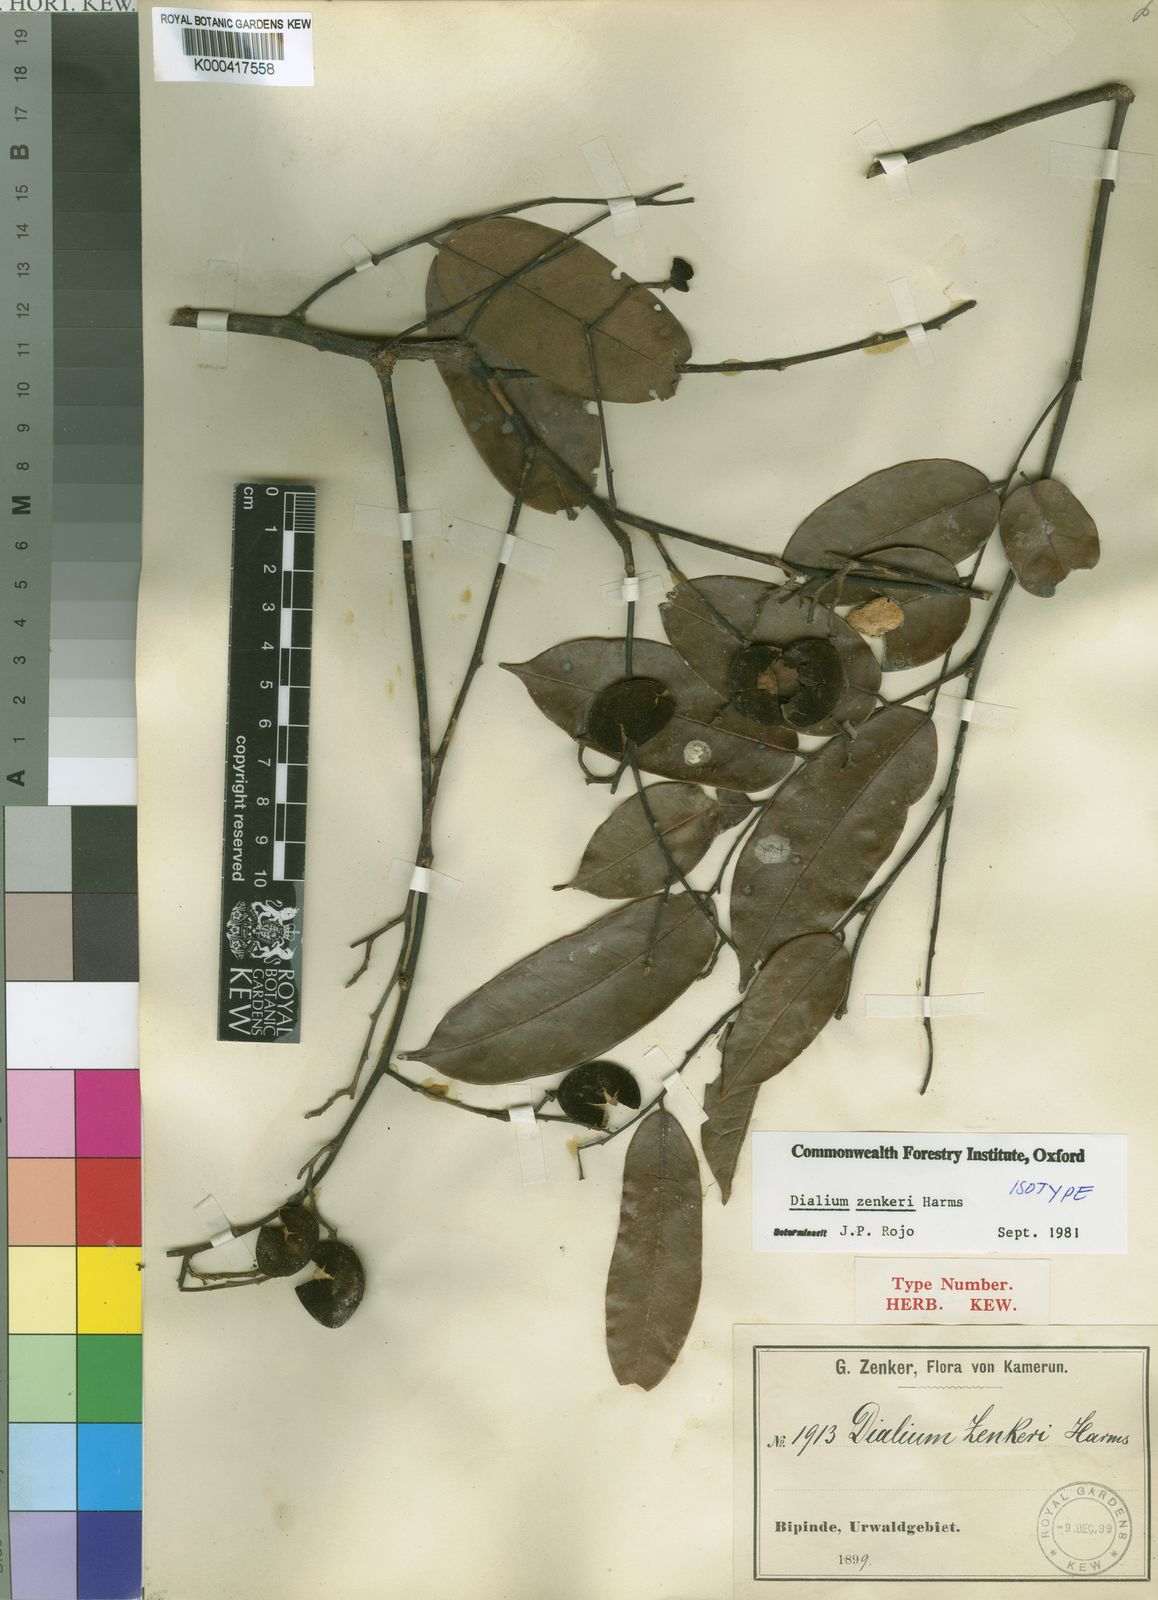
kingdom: Plantae
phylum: Tracheophyta
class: Magnoliopsida
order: Fabales
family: Fabaceae
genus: Dialium
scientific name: Dialium zenkeri
